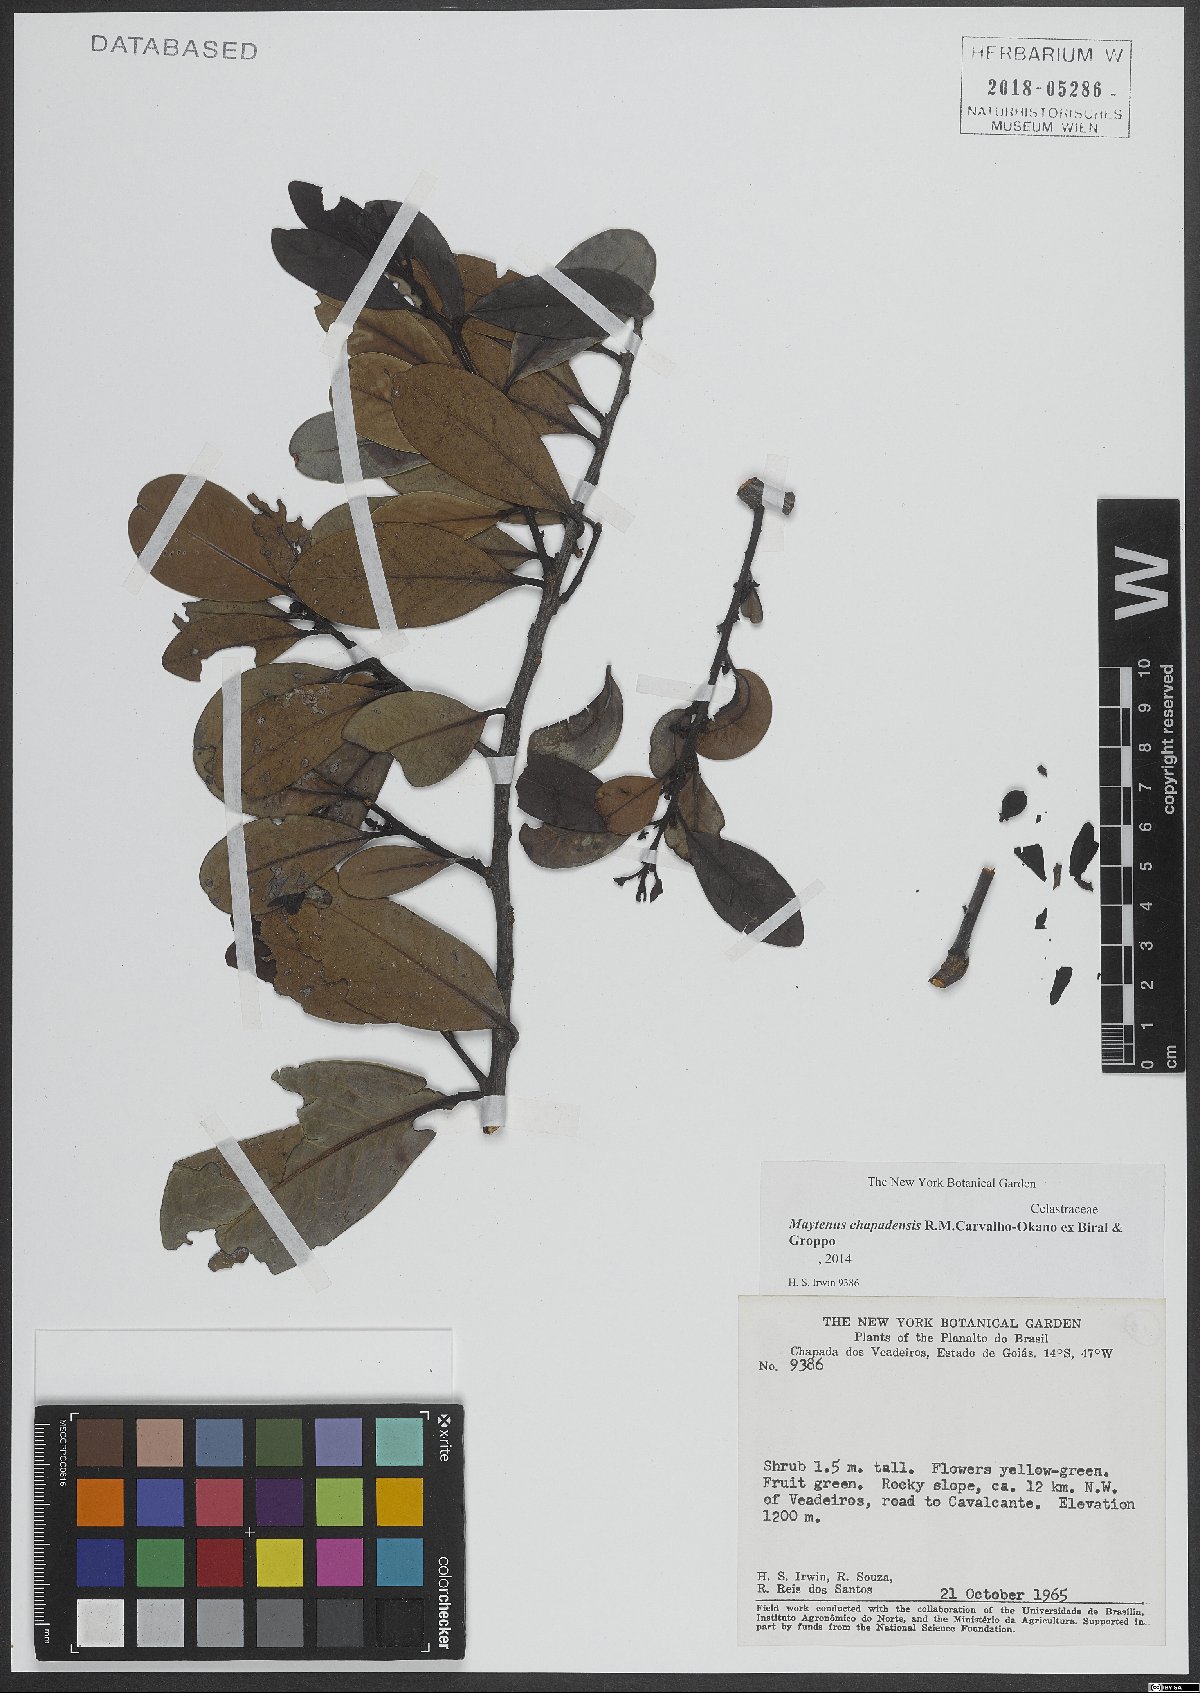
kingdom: Plantae
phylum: Tracheophyta
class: Magnoliopsida
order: Celastrales
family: Celastraceae
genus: Monteverdia
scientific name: Monteverdia chapadensis
